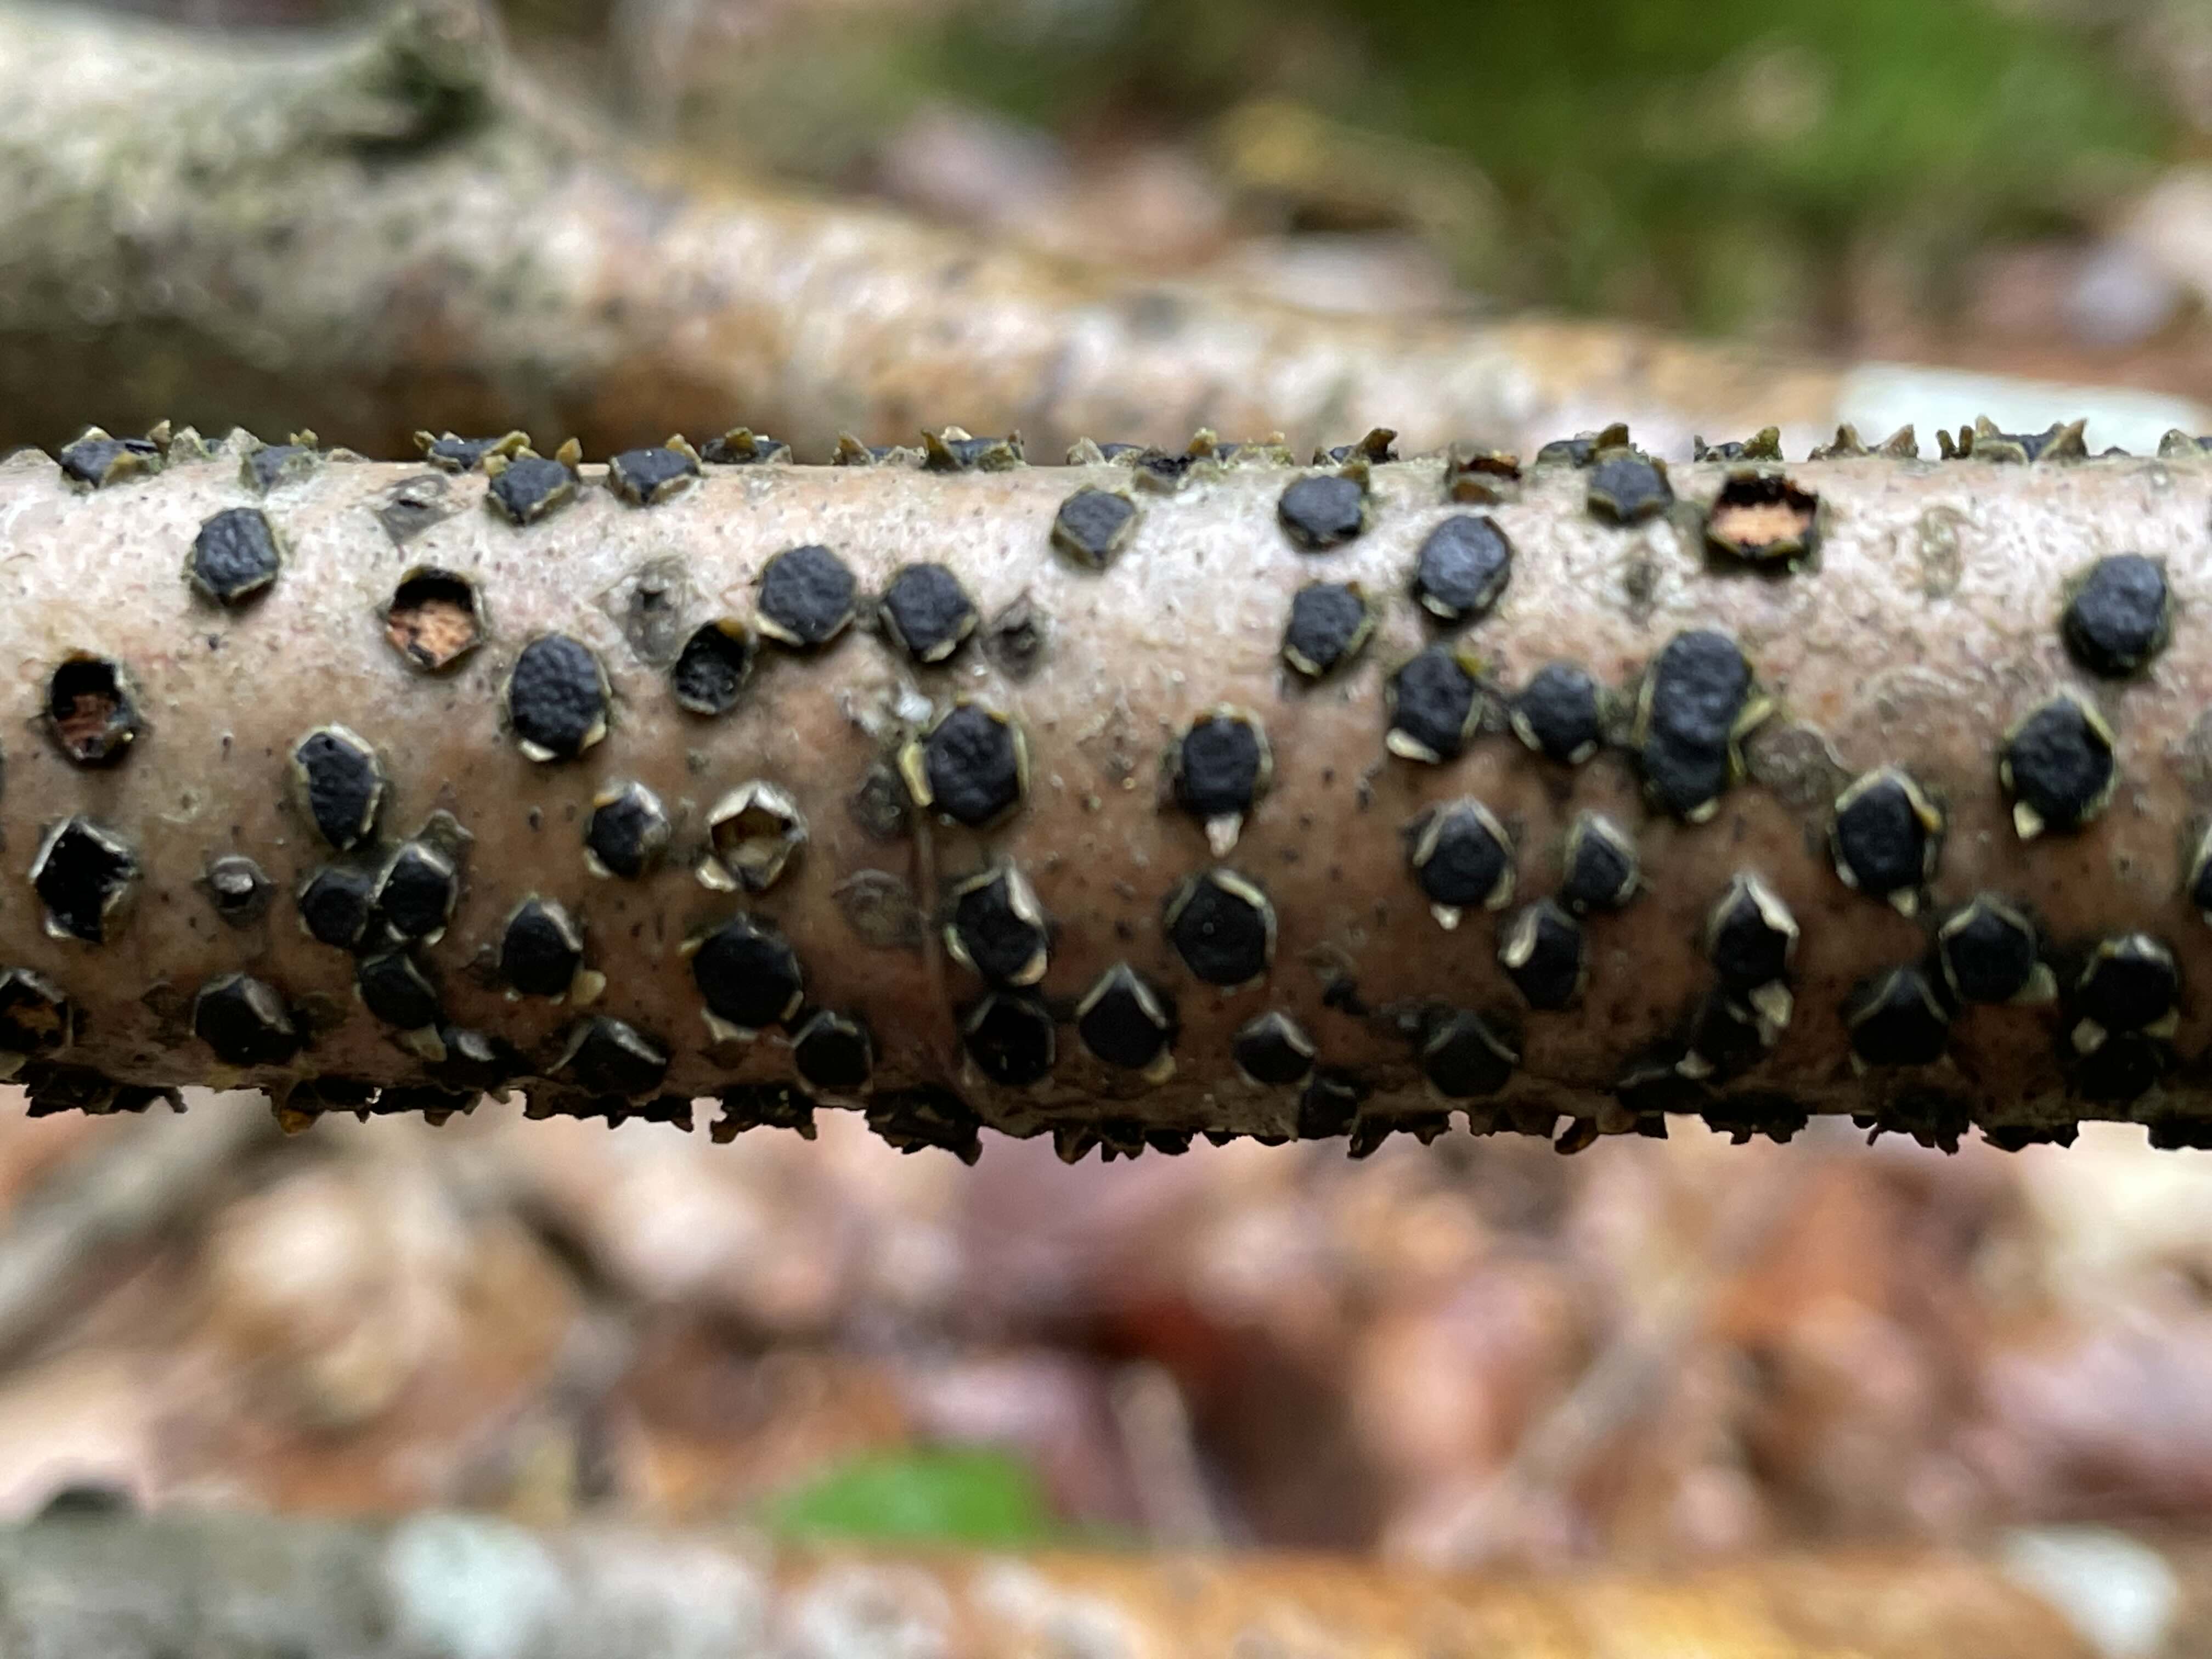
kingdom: Fungi
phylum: Ascomycota
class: Sordariomycetes
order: Xylariales
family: Diatrypaceae
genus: Diatrype
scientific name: Diatrype disciformis
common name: kant-kulskorpe
